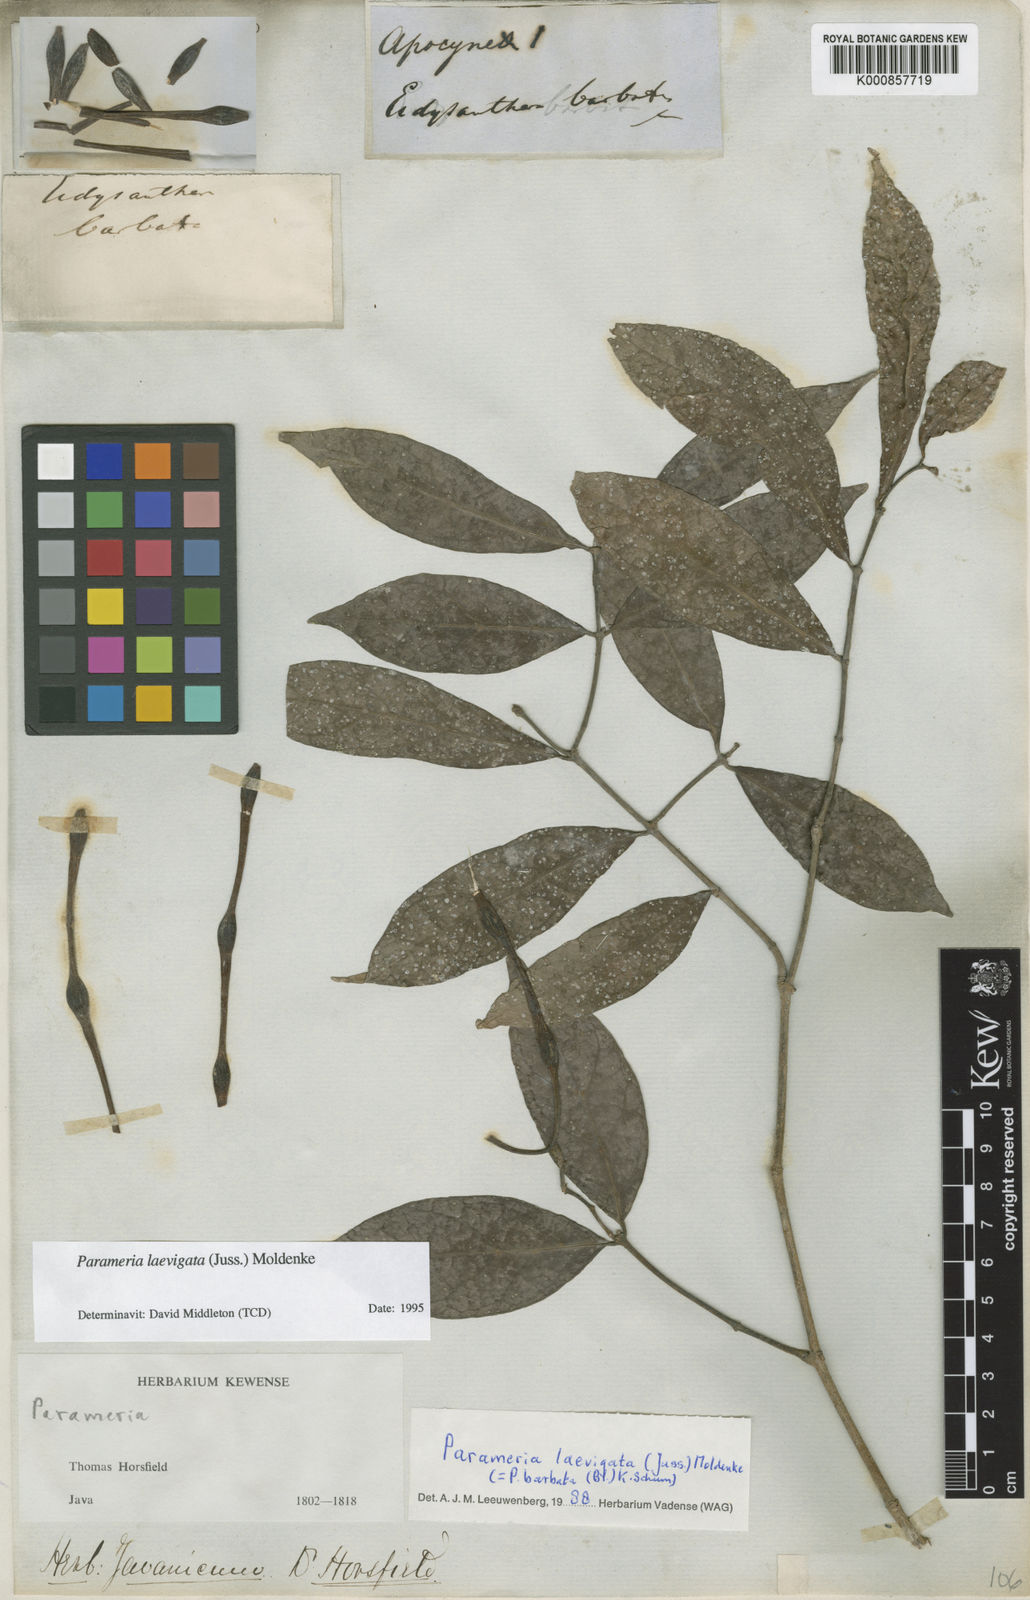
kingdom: Plantae
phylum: Tracheophyta
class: Magnoliopsida
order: Gentianales
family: Apocynaceae
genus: Urceola
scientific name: Urceola laevigata
